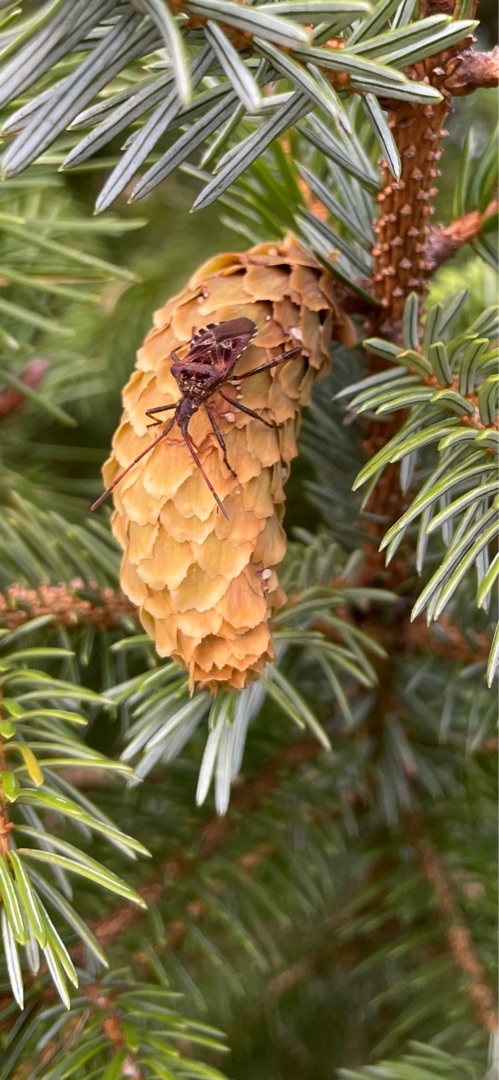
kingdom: Animalia
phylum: Arthropoda
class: Insecta
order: Hemiptera
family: Coreidae
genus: Leptoglossus
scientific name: Leptoglossus occidentalis
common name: Amerikansk fyrretæge
